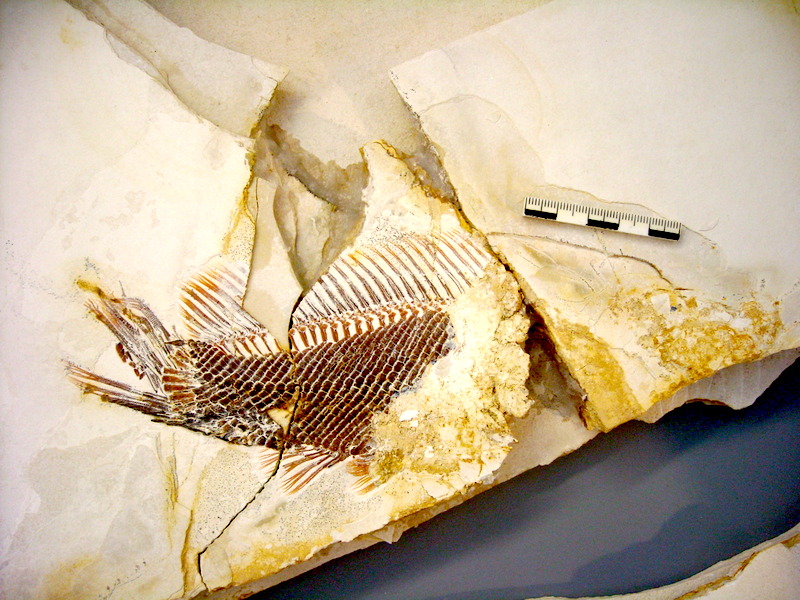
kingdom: Animalia
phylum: Chordata
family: Macrosemiidae
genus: Palaeomacrosemius
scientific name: Palaeomacrosemius thiollieri
